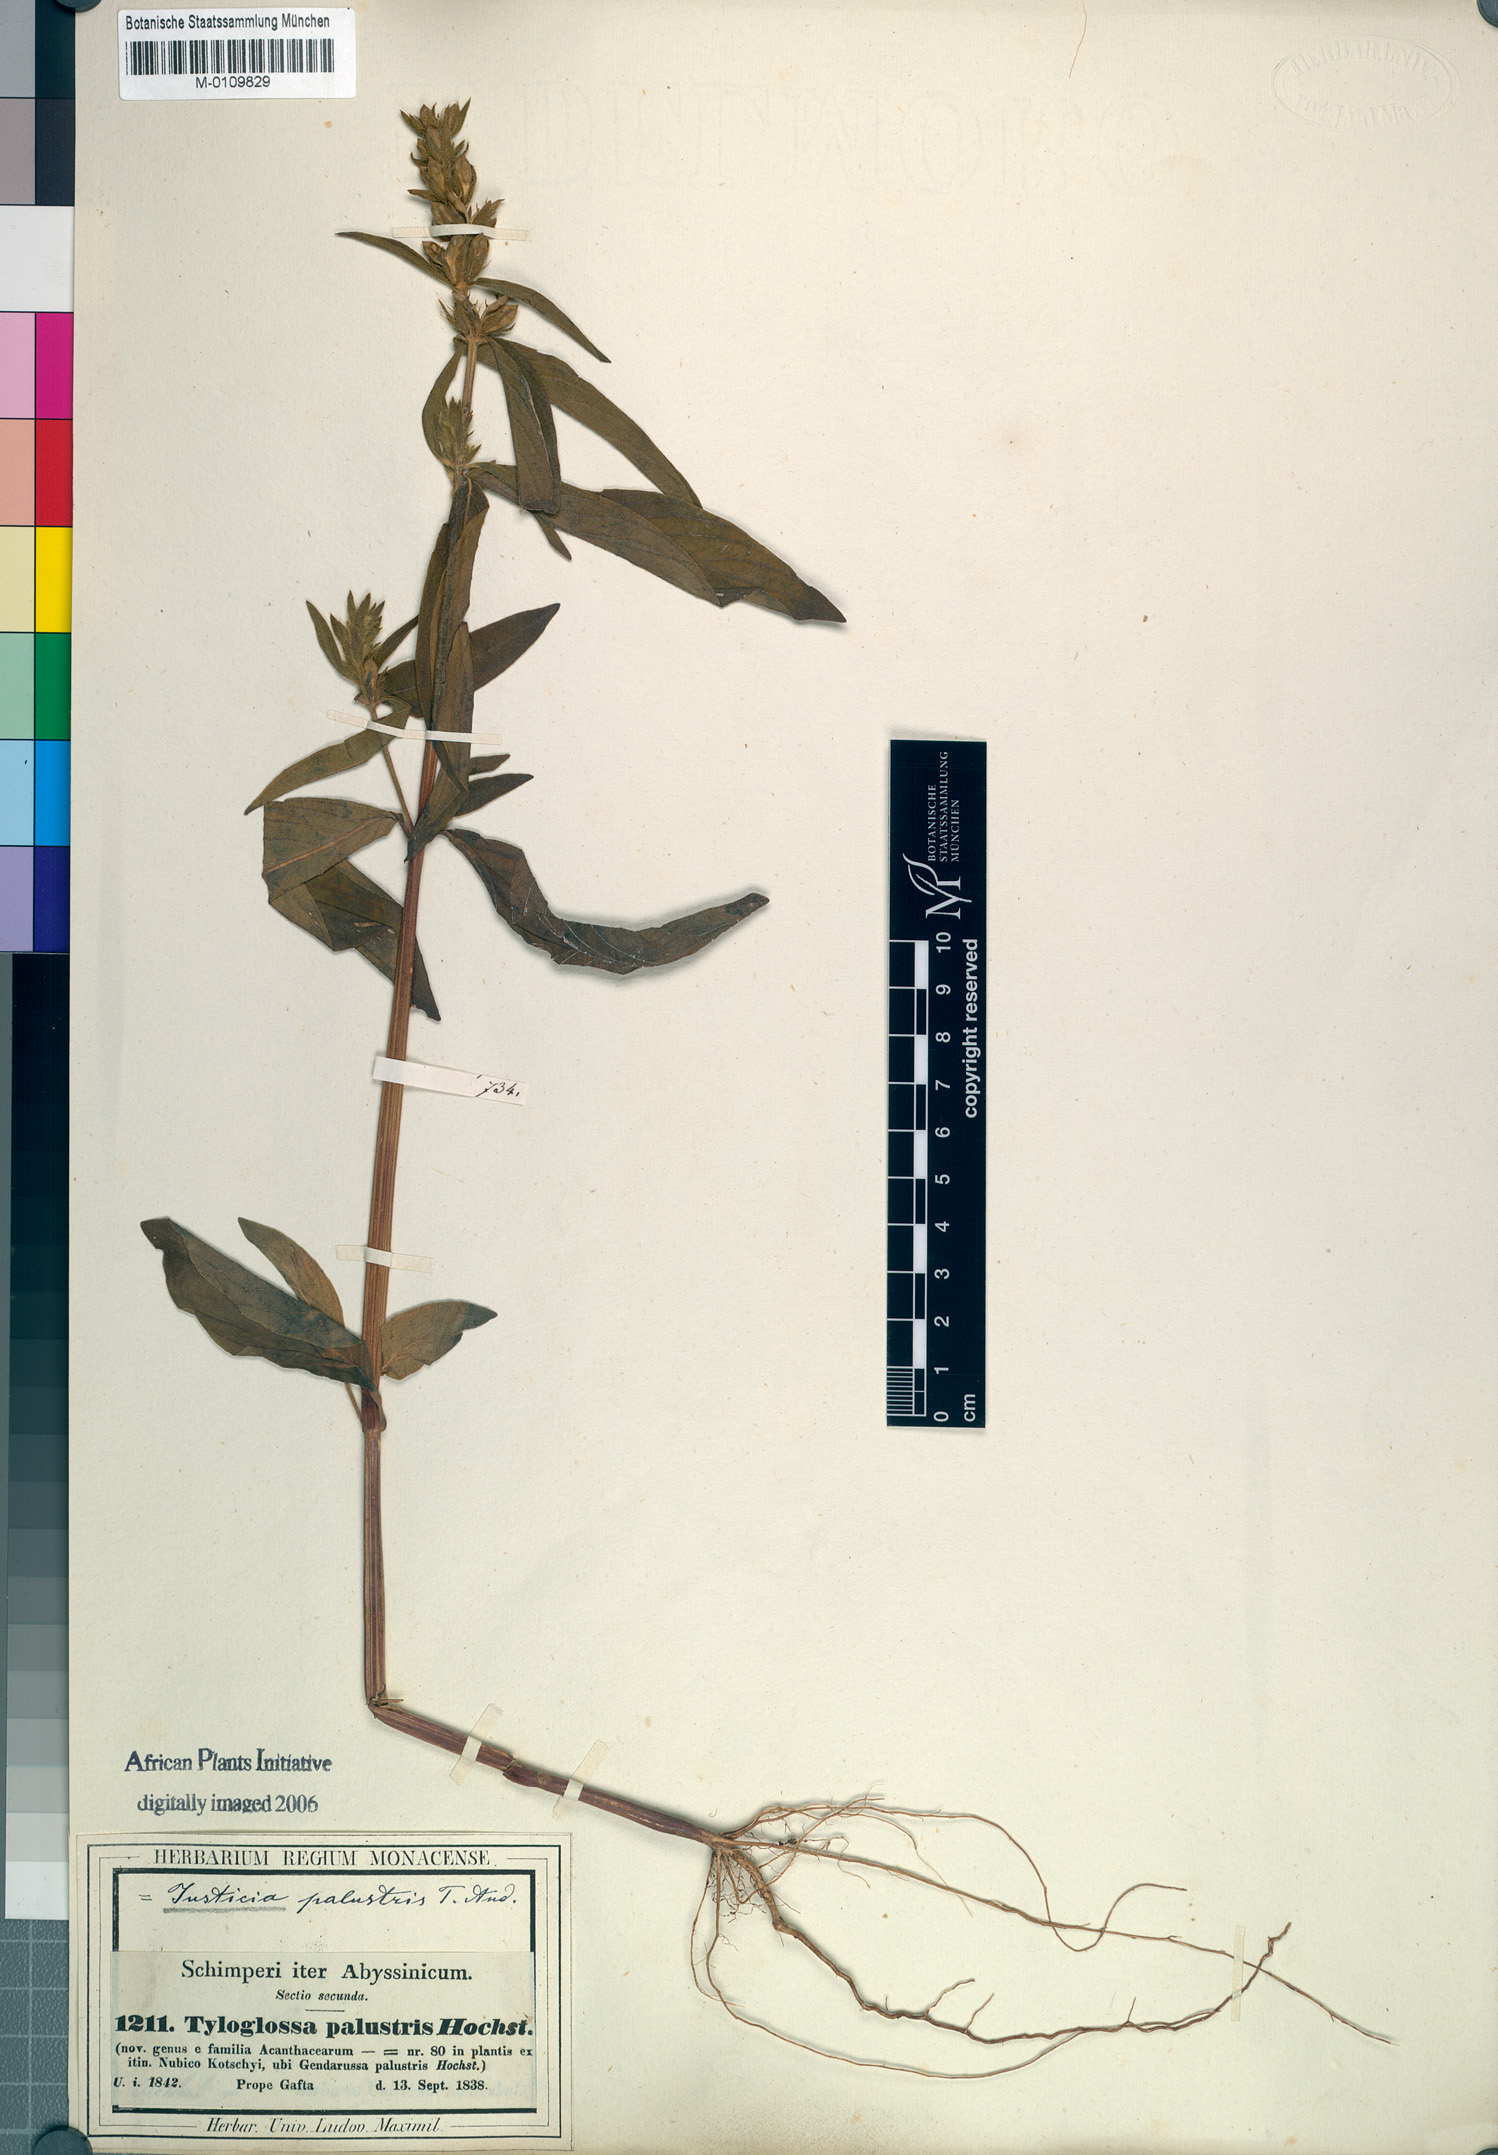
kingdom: Plantae
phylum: Tracheophyta
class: Magnoliopsida
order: Lamiales
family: Acanthaceae
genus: Justicia
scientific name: Justicia flava
